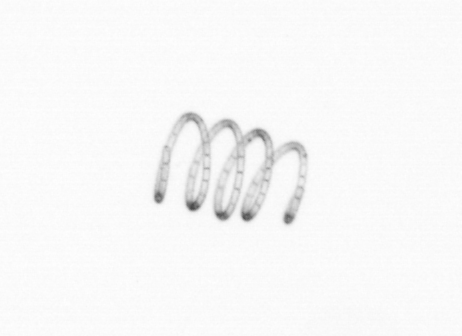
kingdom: Chromista
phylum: Ochrophyta
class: Bacillariophyceae
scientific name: Bacillariophyceae
